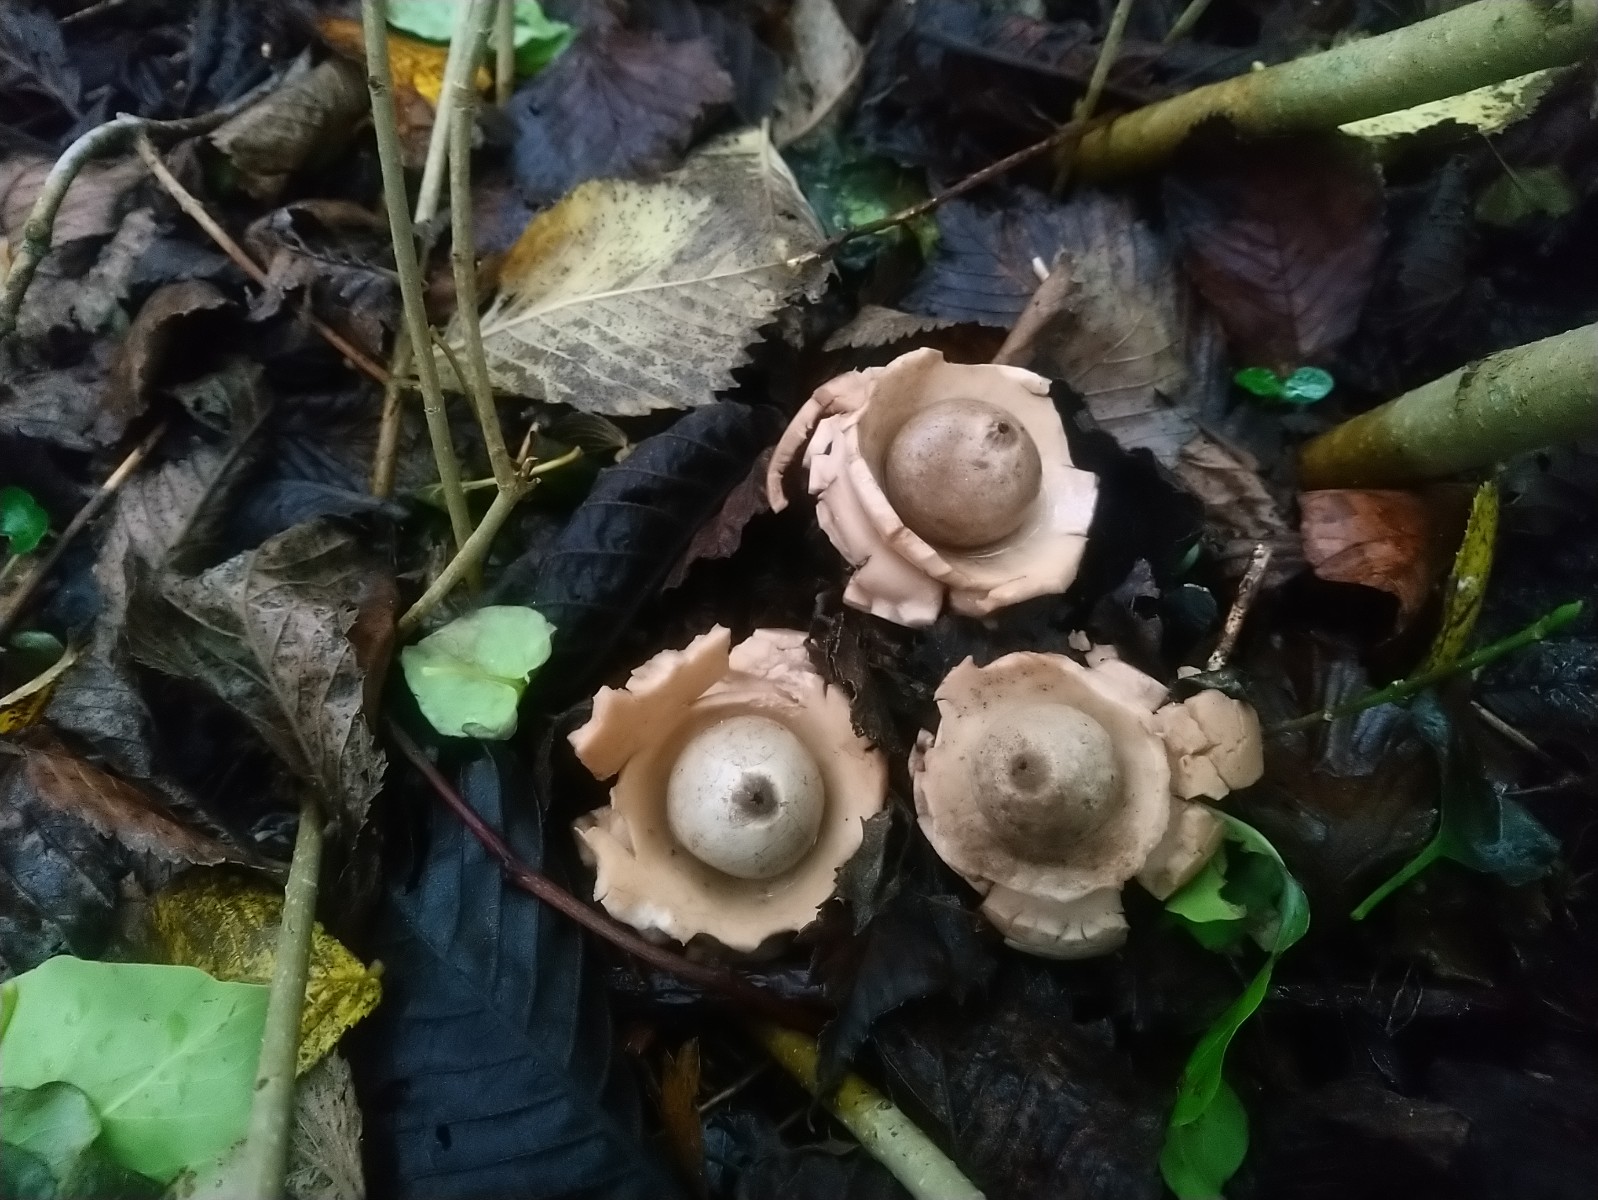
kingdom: Fungi
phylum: Basidiomycota
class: Agaricomycetes
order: Geastrales
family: Geastraceae
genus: Geastrum
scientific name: Geastrum michelianum
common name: kødet stjernebold
